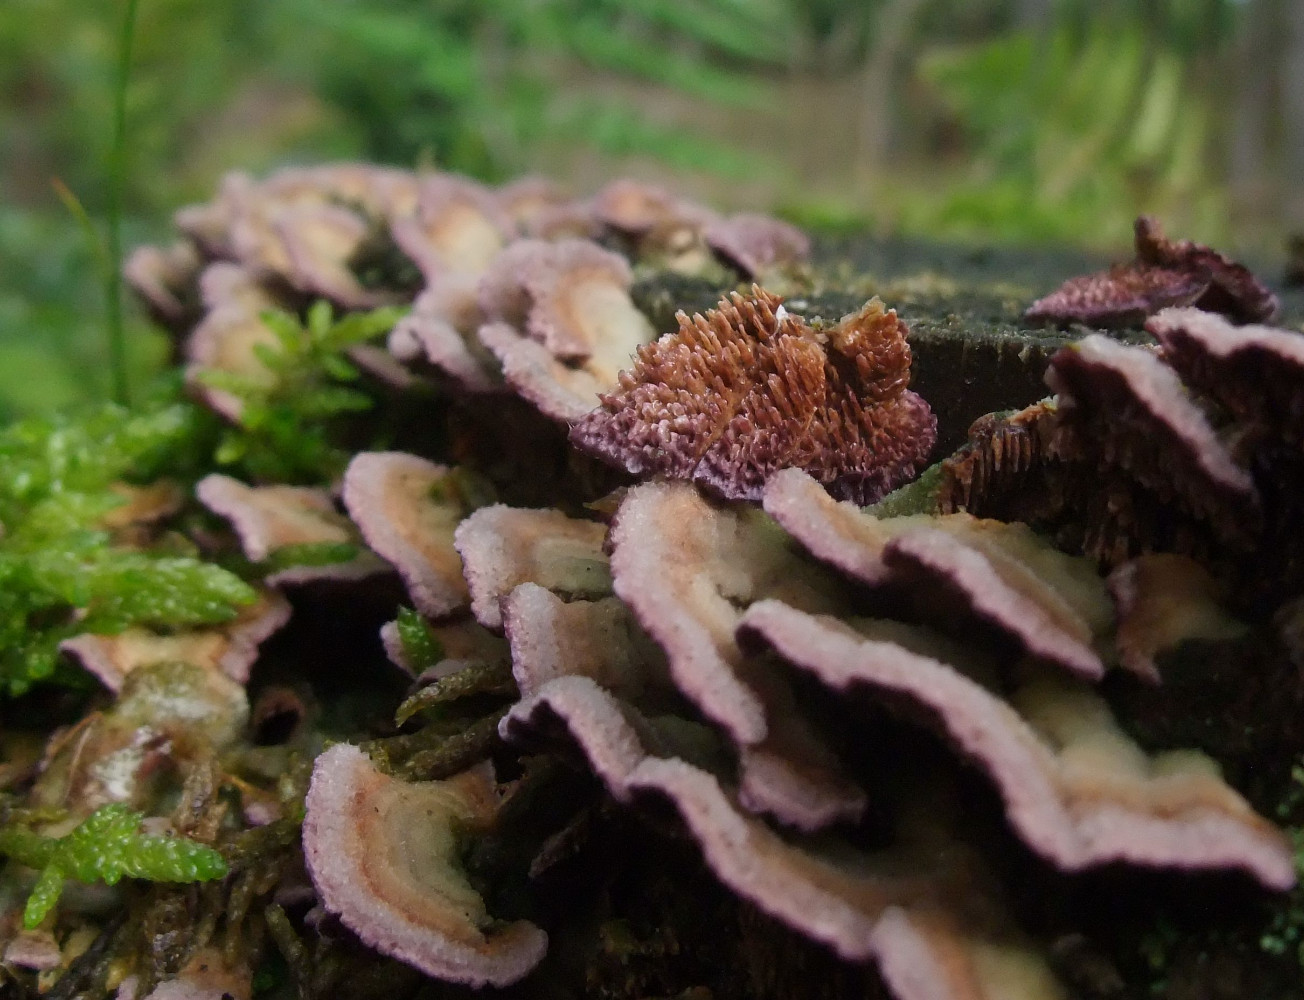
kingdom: Fungi
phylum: Basidiomycota
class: Agaricomycetes
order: Hymenochaetales
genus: Trichaptum
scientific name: Trichaptum fuscoviolaceum
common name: tandet violporesvamp
